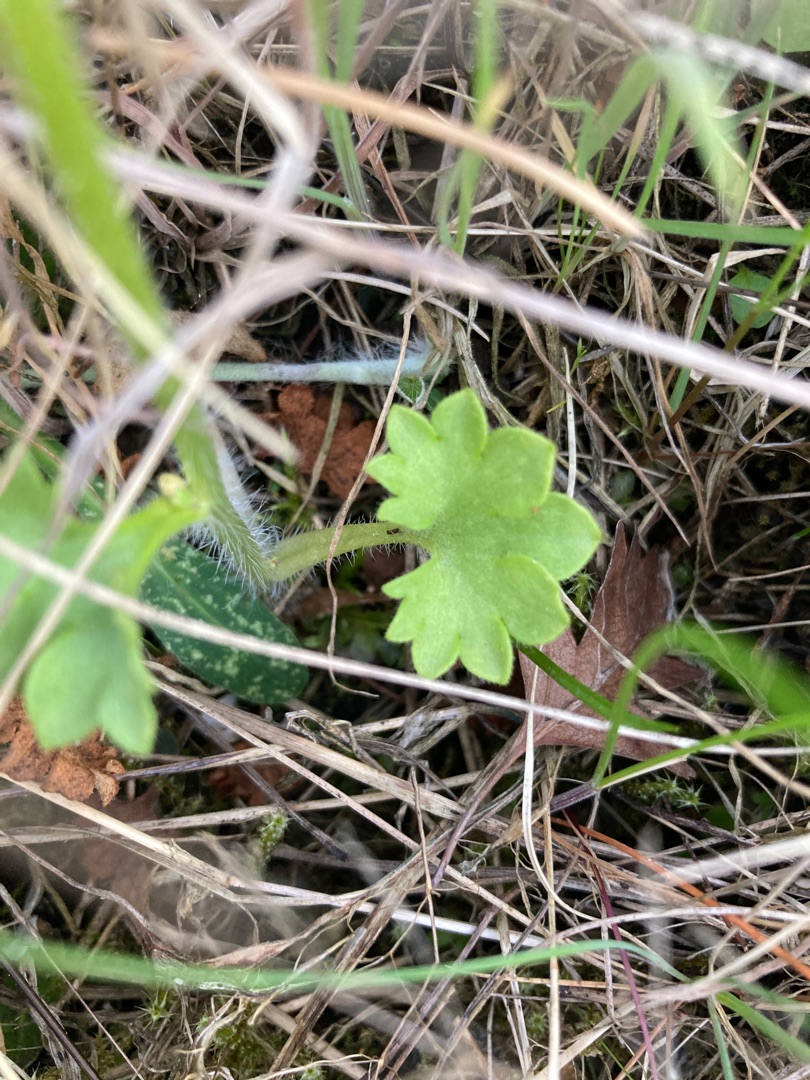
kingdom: Plantae
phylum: Tracheophyta
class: Magnoliopsida
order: Saxifragales
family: Saxifragaceae
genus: Saxifraga
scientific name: Saxifraga granulata
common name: Kornet stenbræk
